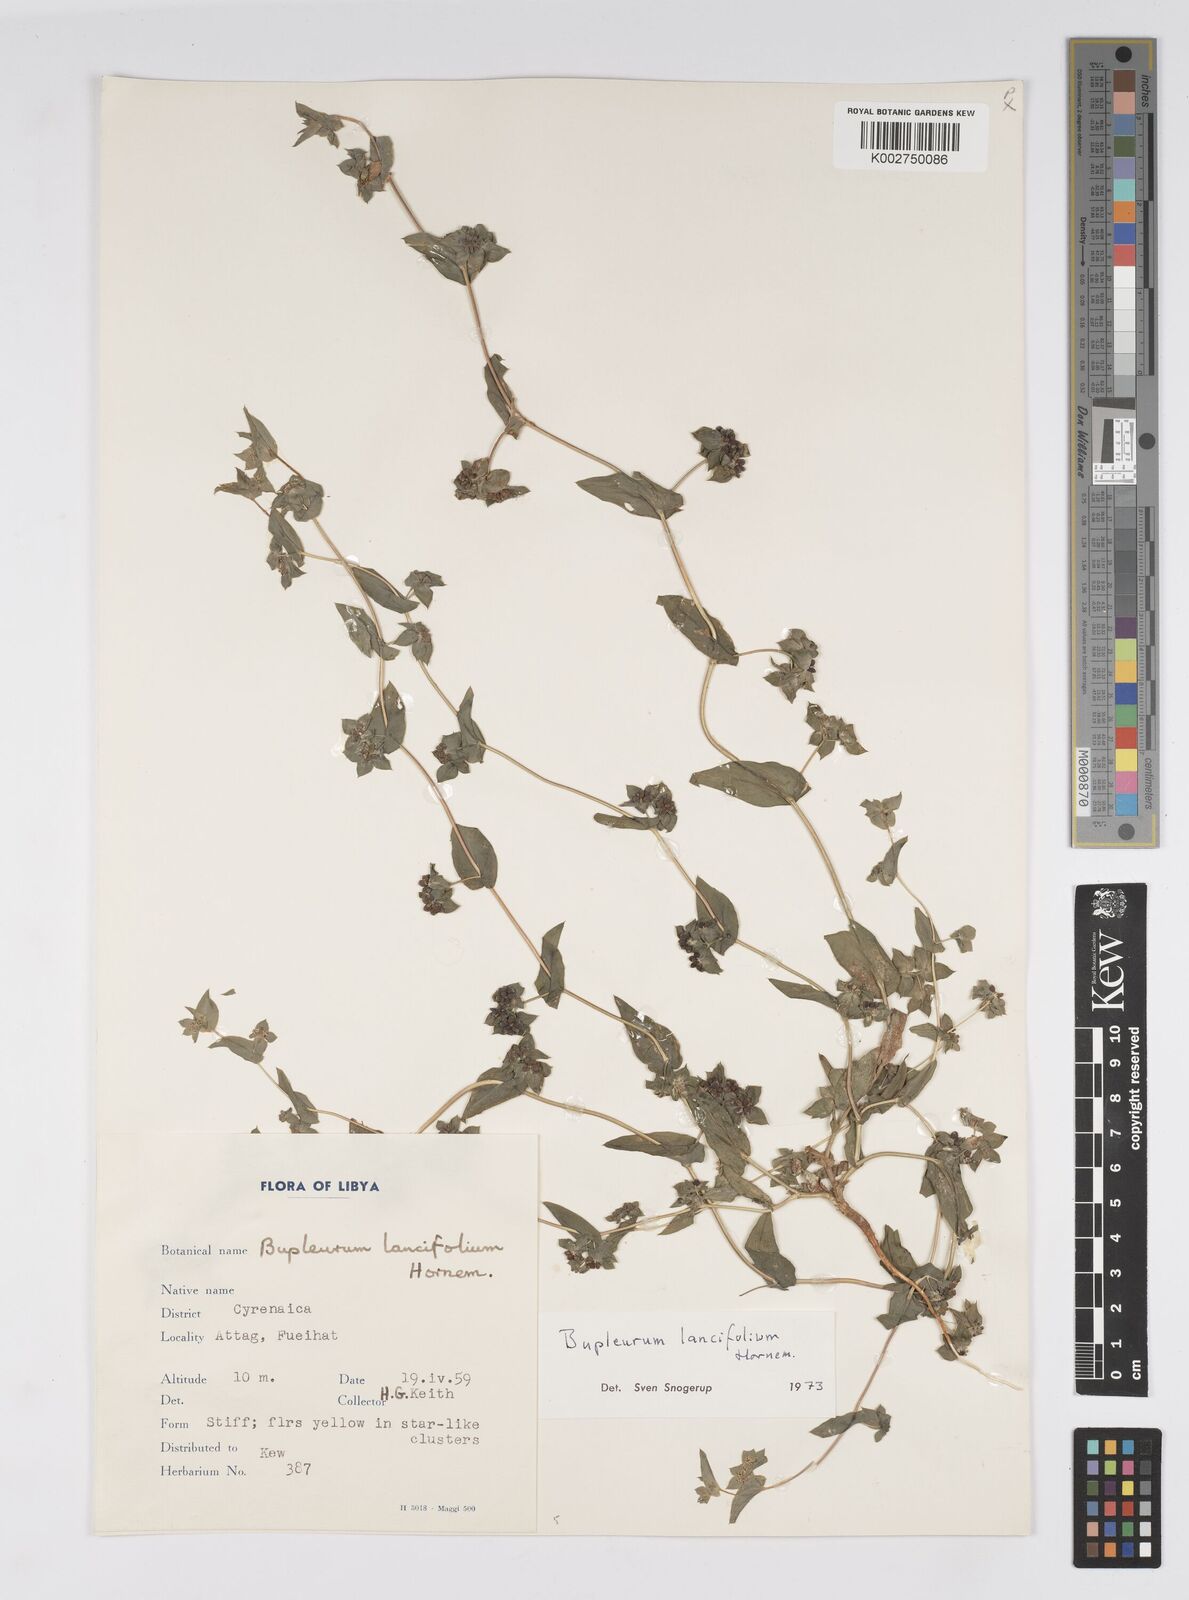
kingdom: Plantae
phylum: Tracheophyta
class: Magnoliopsida
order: Apiales
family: Apiaceae
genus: Bupleurum
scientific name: Bupleurum lancifolium
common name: False thorow-wax
